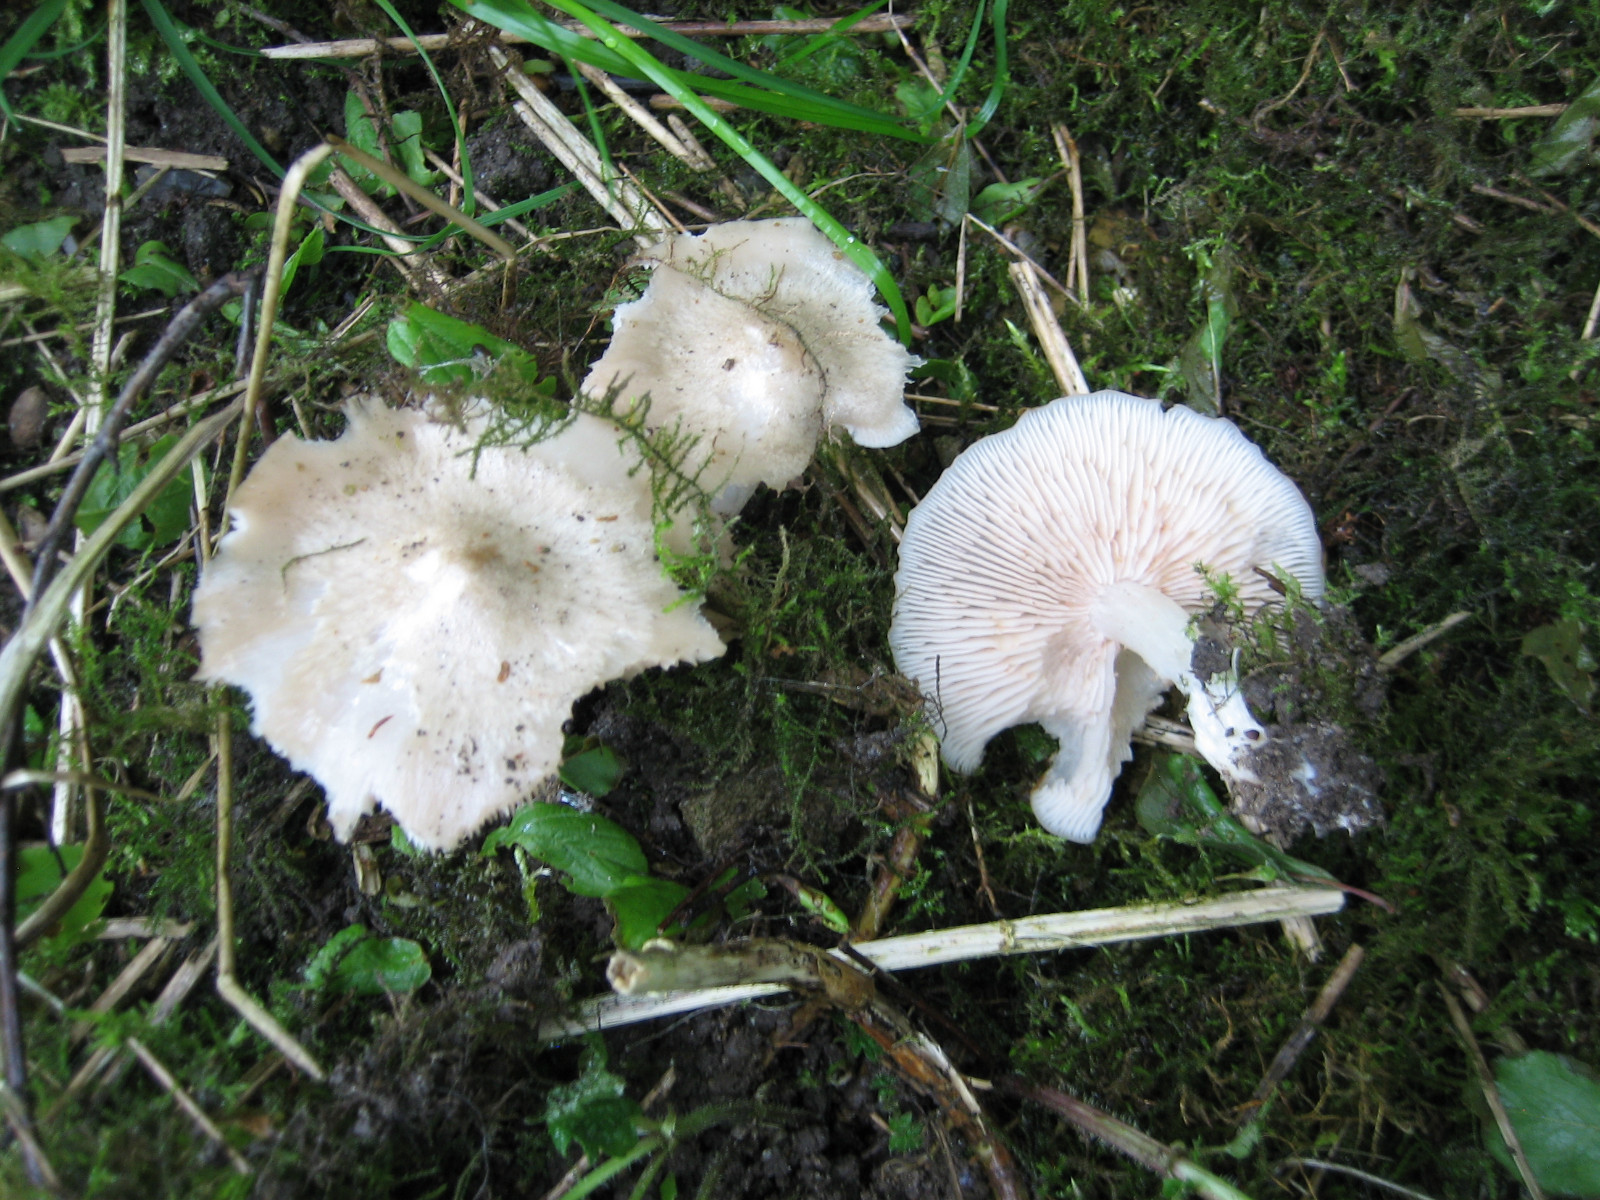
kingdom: Fungi
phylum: Basidiomycota
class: Agaricomycetes
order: Agaricales
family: Entolomataceae
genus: Entoloma
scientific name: Entoloma clypeatum
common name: flammet rødblad
